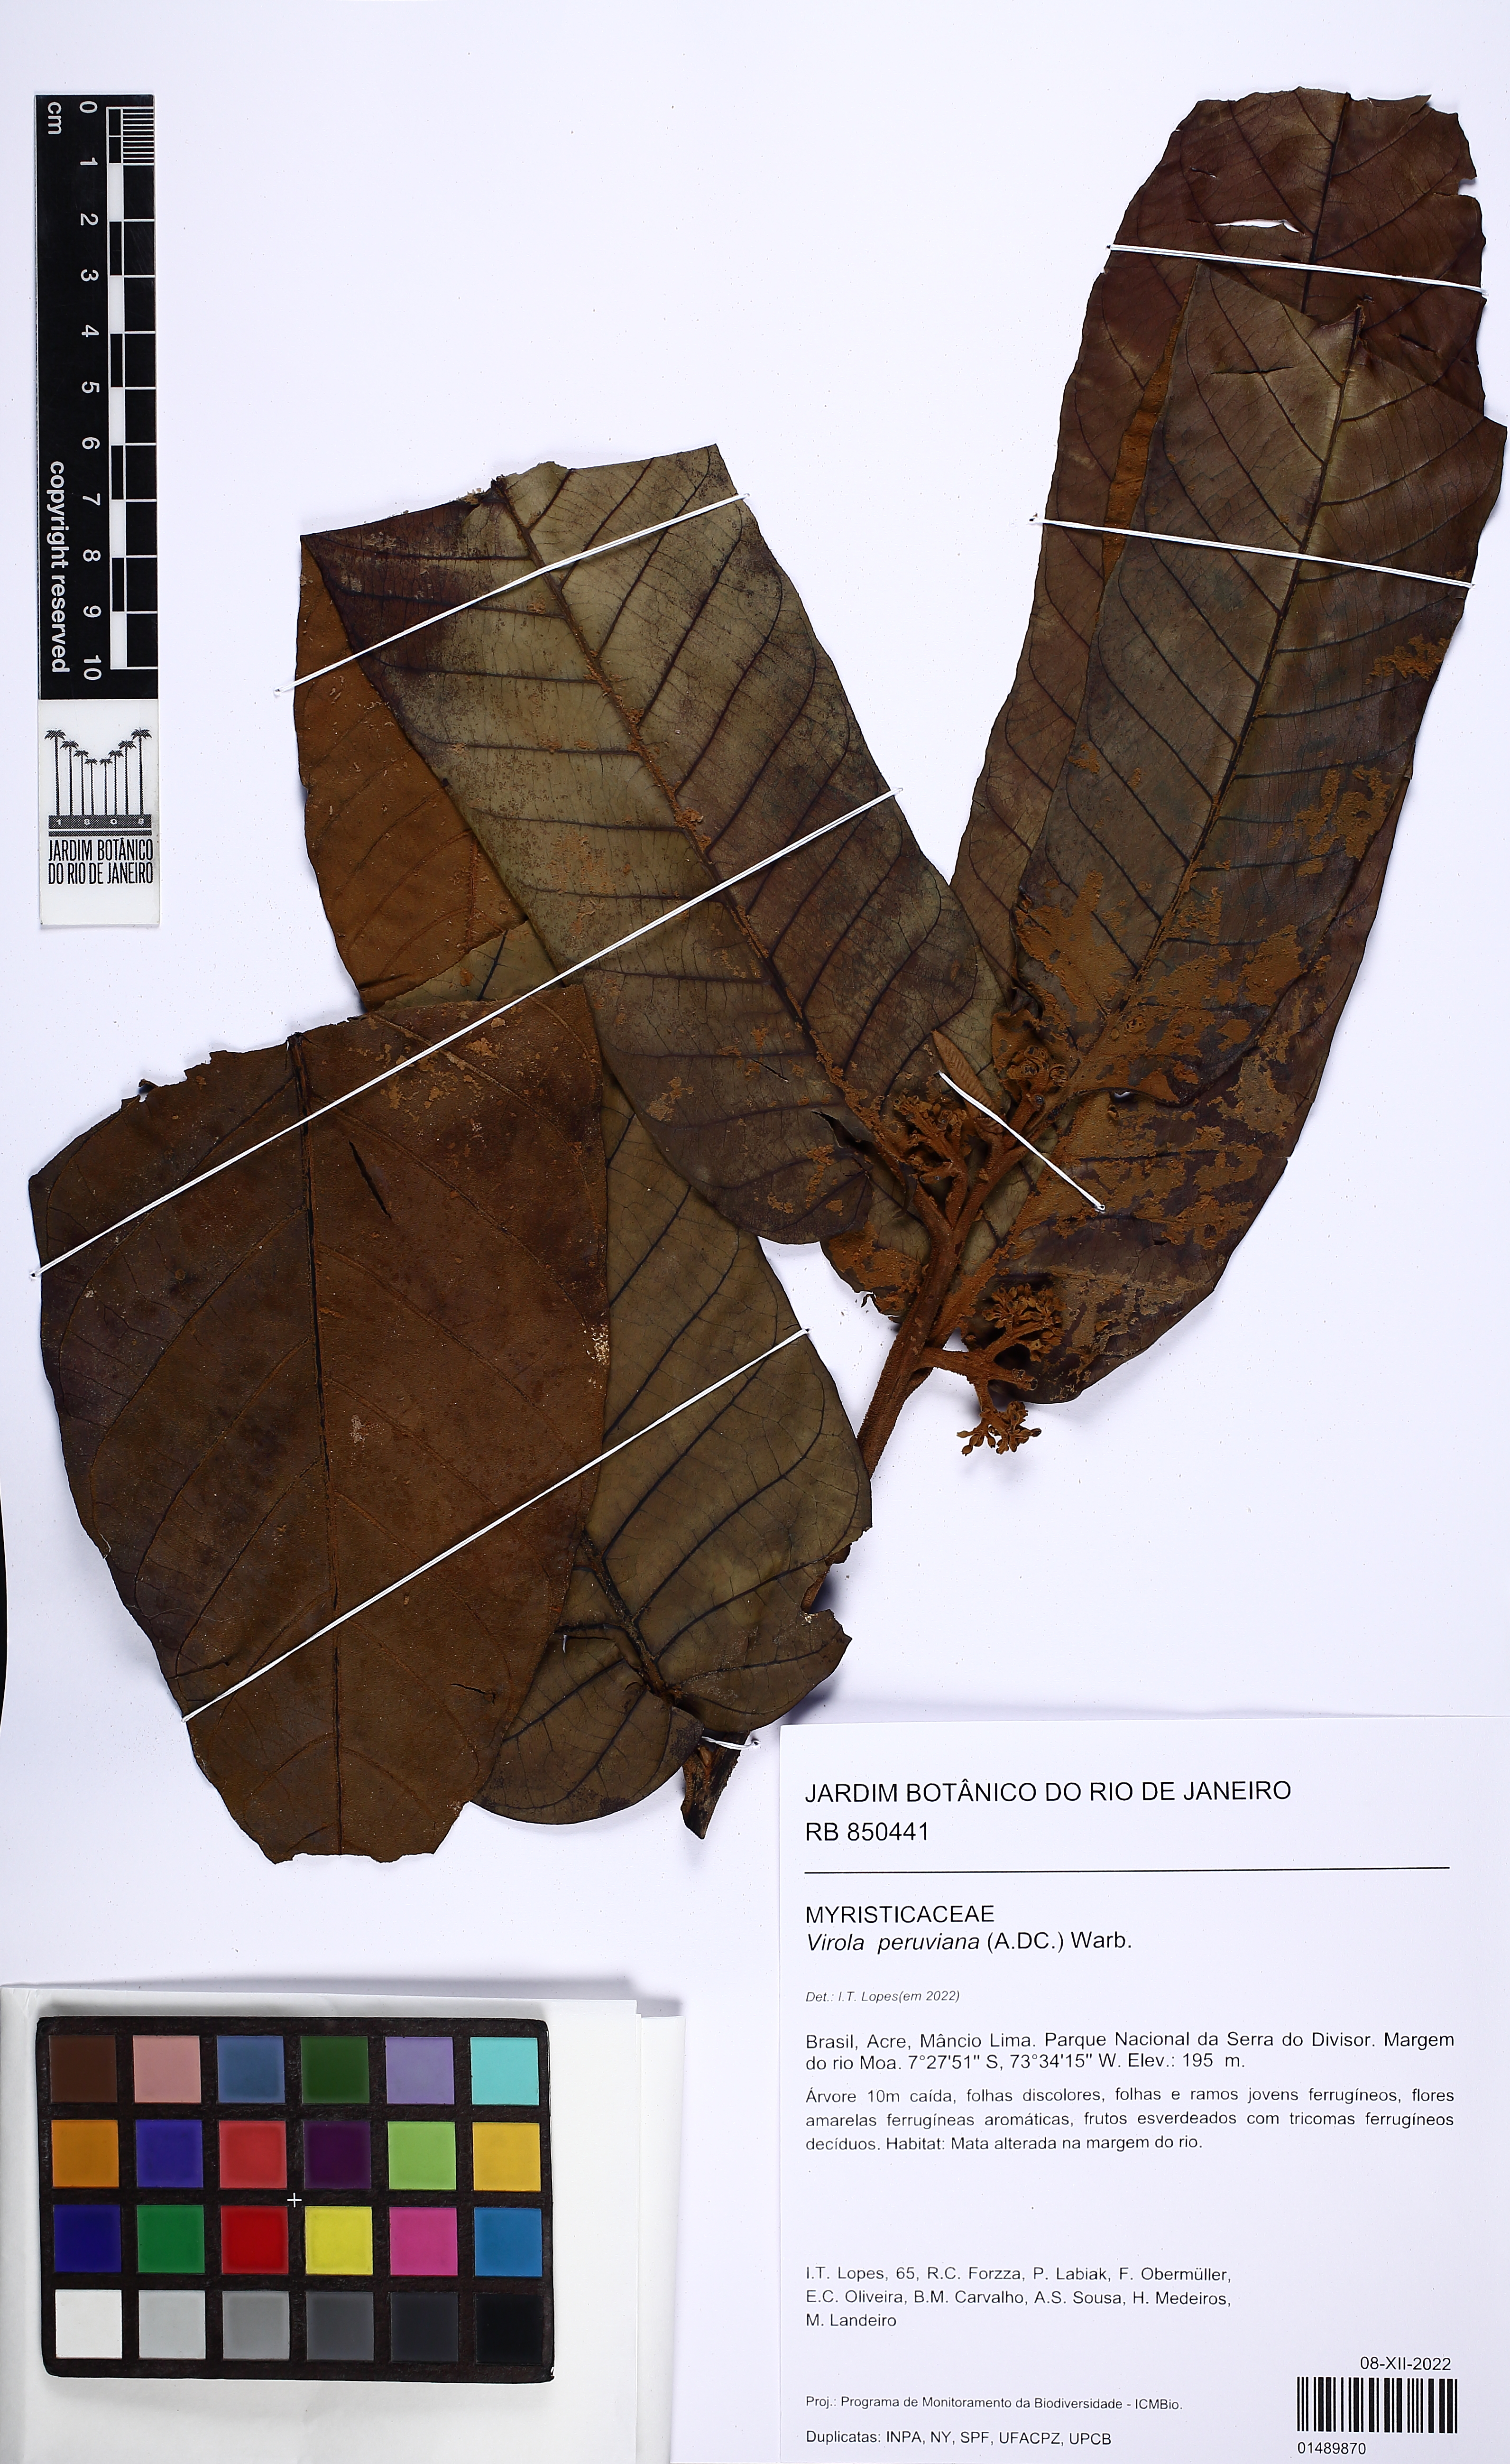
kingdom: Plantae
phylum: Tracheophyta
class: Magnoliopsida
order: Magnoliales
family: Myristicaceae
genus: Virola
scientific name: Virola peruviana
